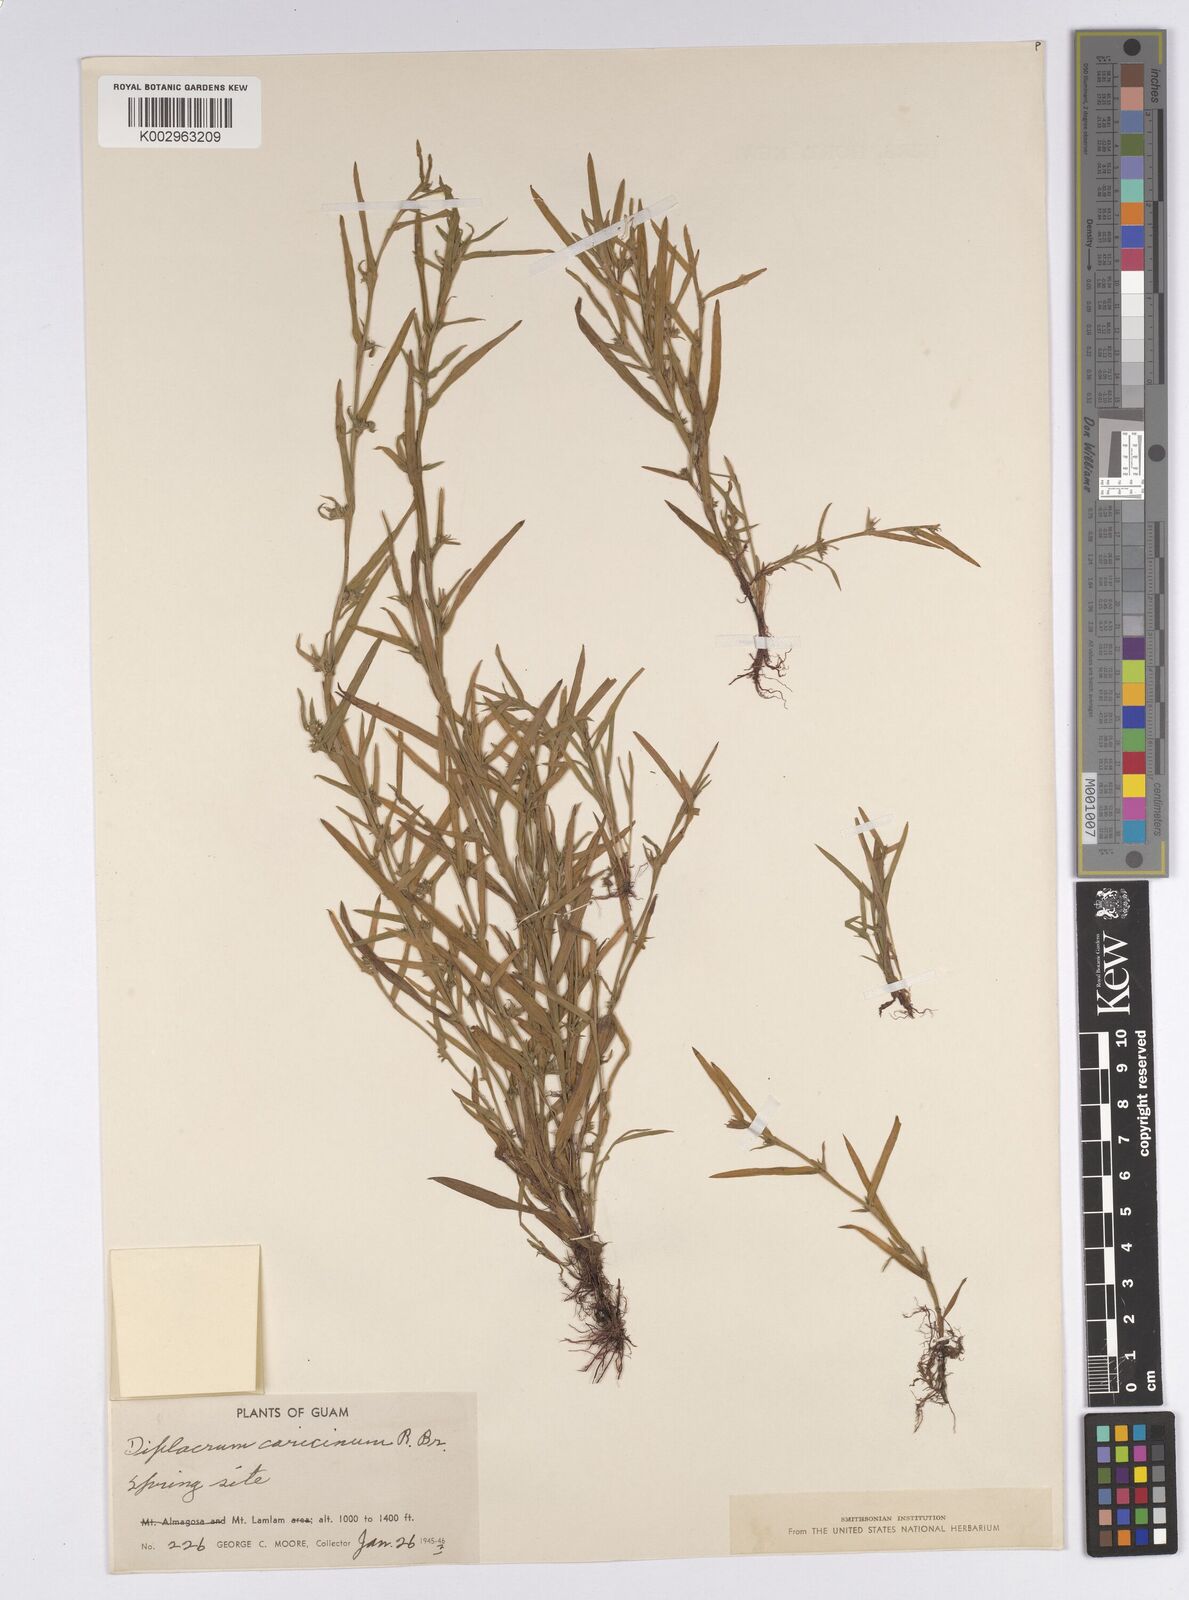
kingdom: Plantae
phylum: Tracheophyta
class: Liliopsida
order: Poales
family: Cyperaceae
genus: Diplacrum
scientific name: Diplacrum pygmaeopsis
